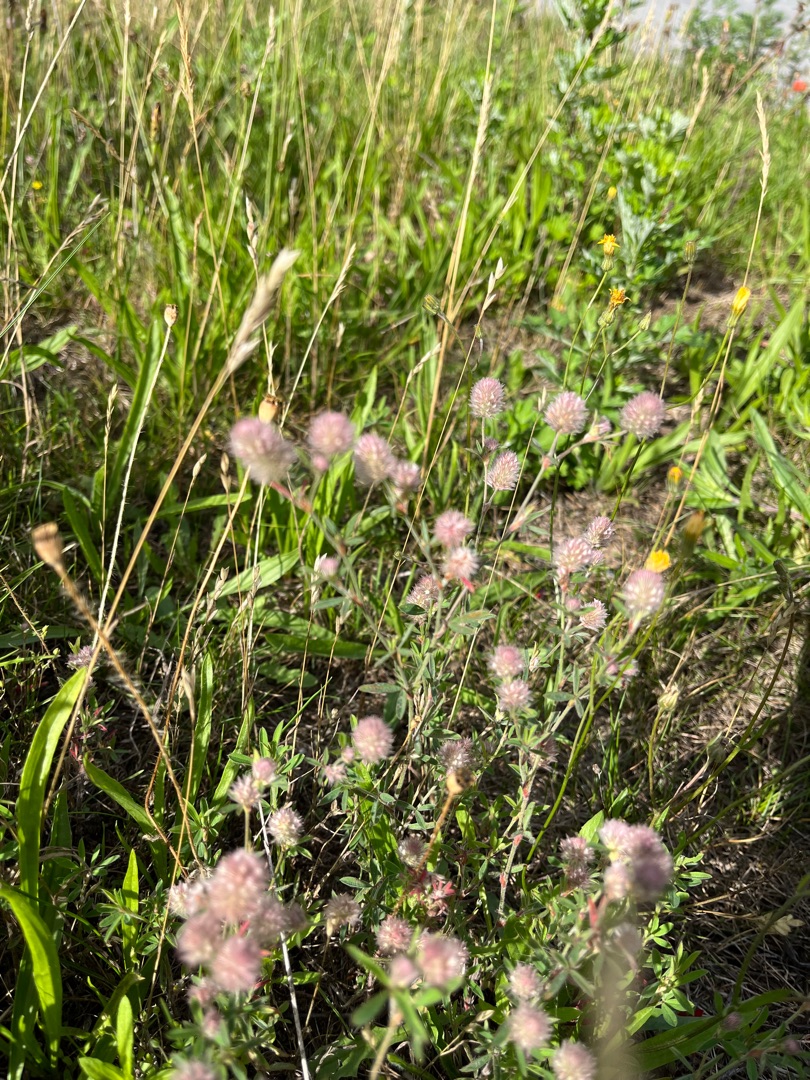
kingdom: Plantae
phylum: Tracheophyta
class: Magnoliopsida
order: Fabales
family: Fabaceae
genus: Trifolium
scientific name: Trifolium arvense
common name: Hare-kløver
